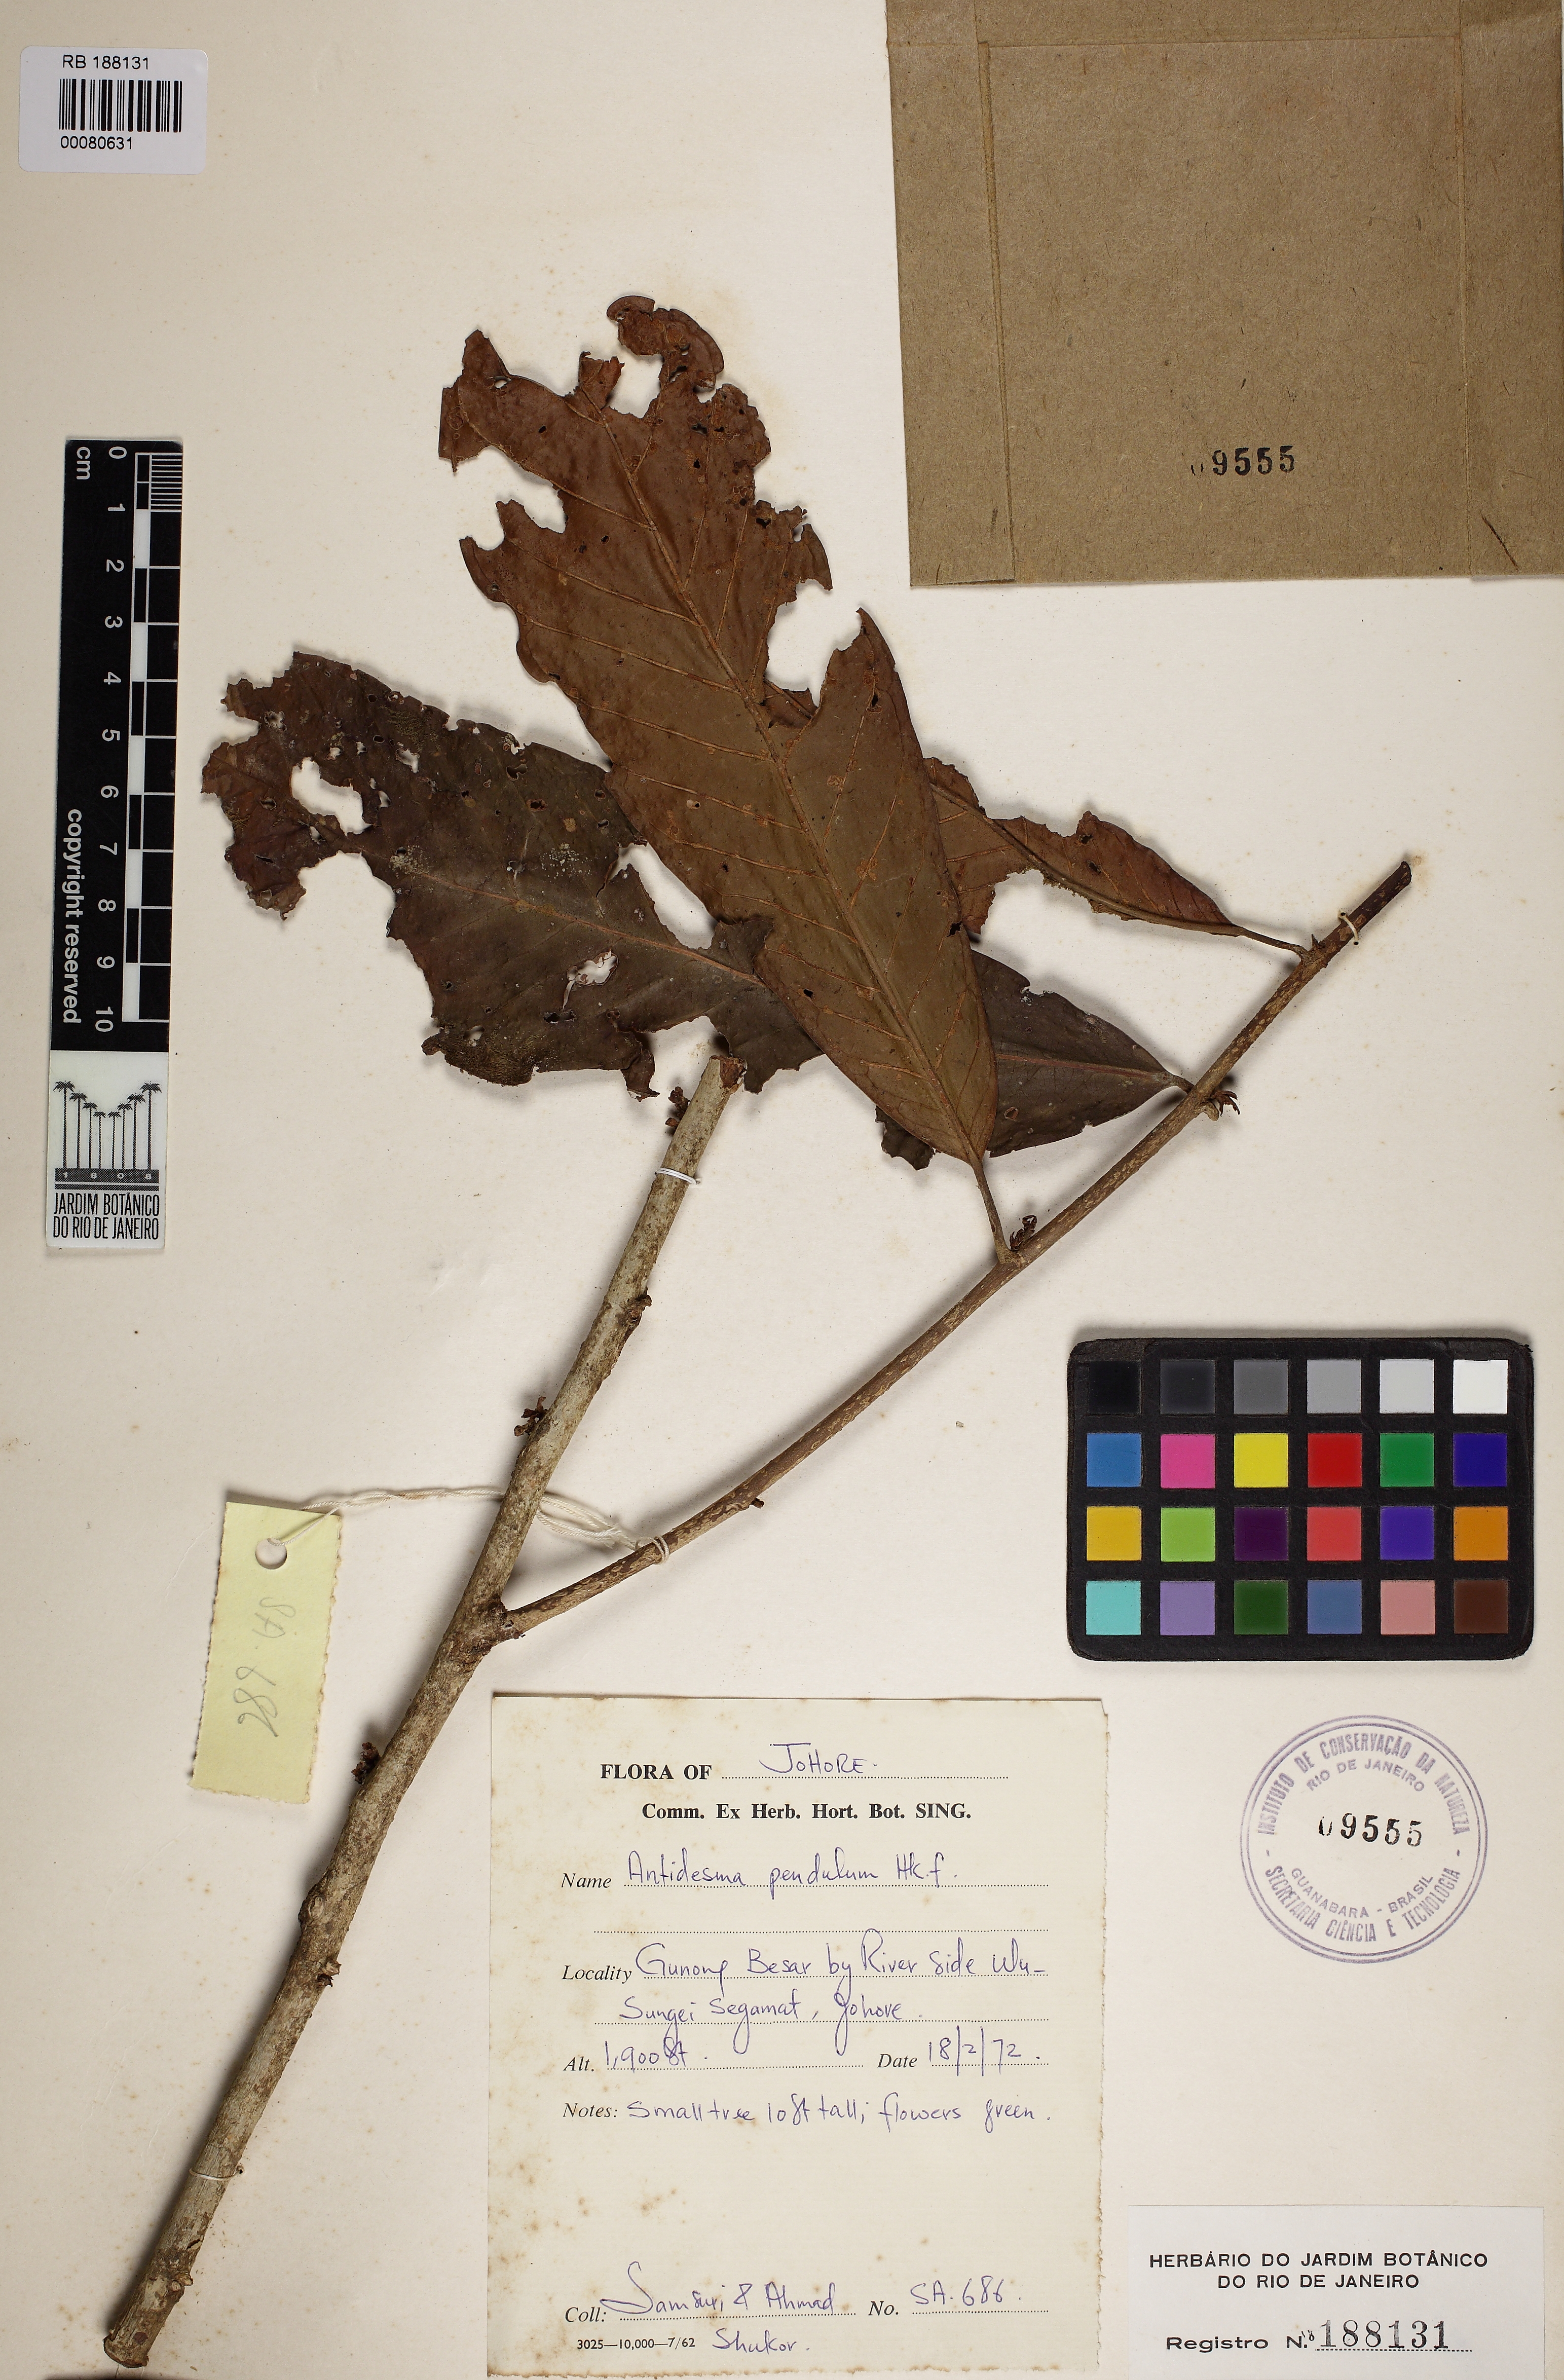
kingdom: Plantae
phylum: Tracheophyta
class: Magnoliopsida
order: Malpighiales
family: Phyllanthaceae
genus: Antidesma
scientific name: Antidesma pendulum
